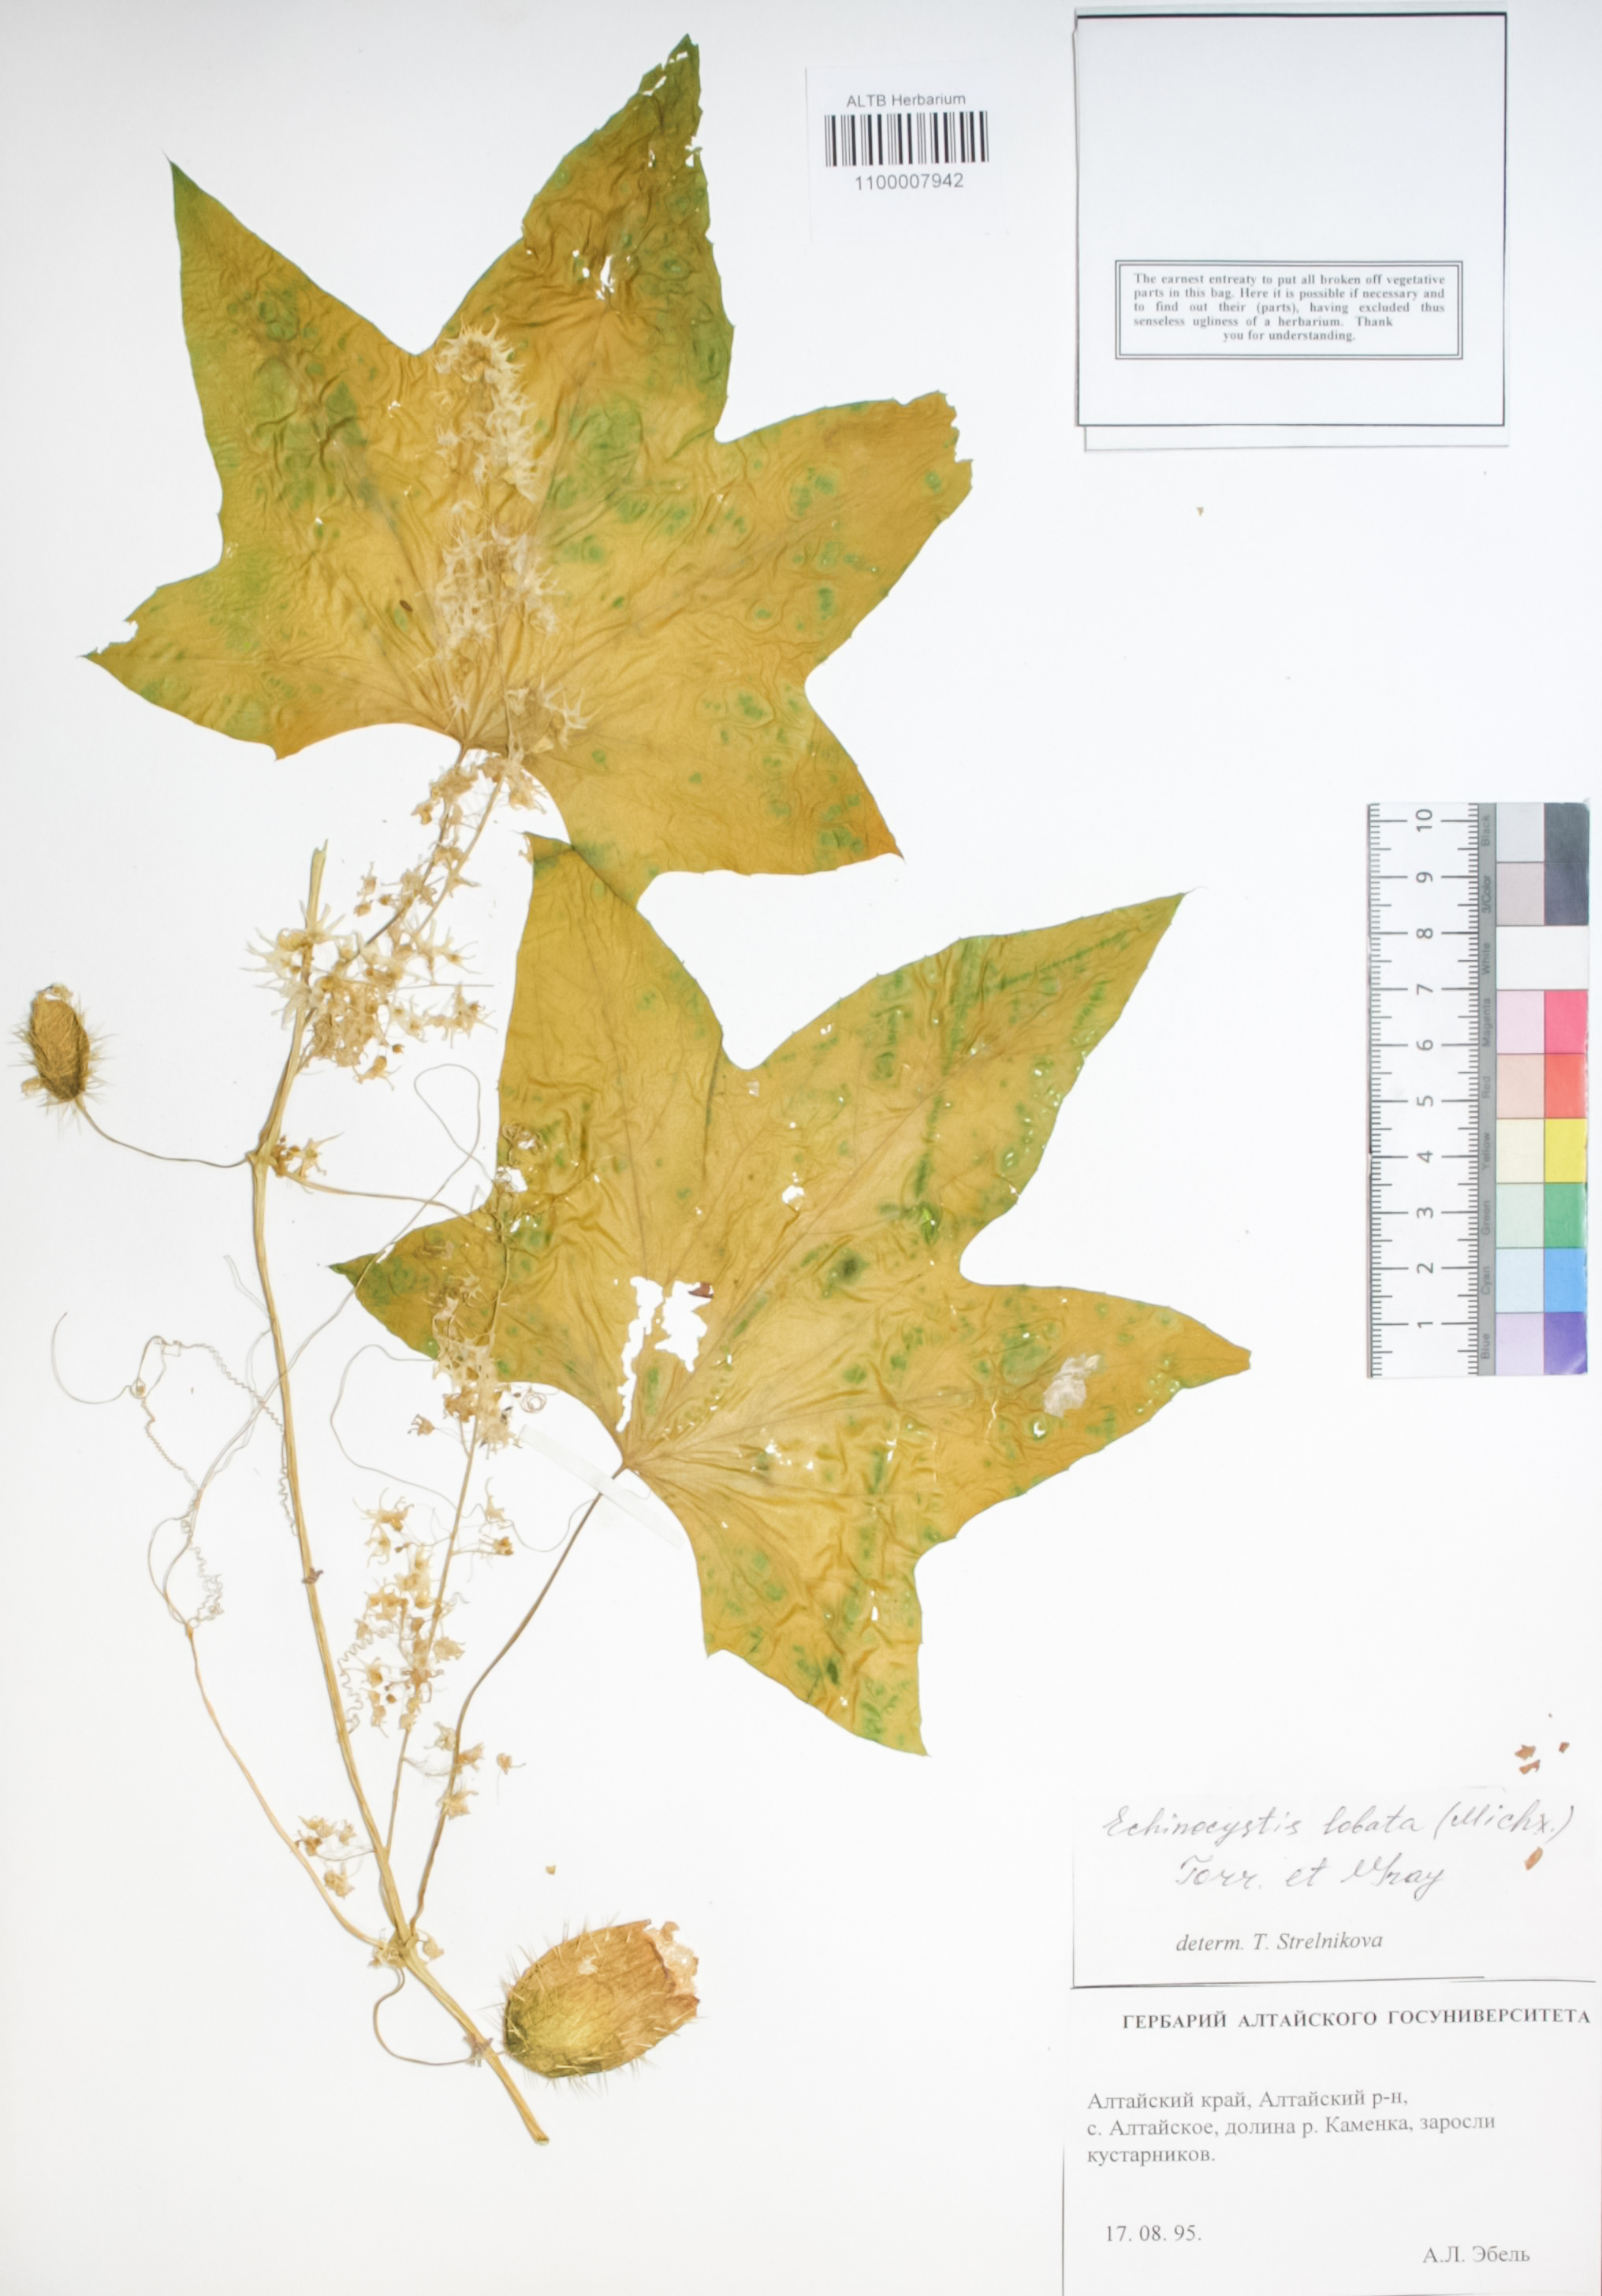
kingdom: Plantae
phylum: Tracheophyta
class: Magnoliopsida
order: Cucurbitales
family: Cucurbitaceae
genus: Echinocystis
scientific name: Echinocystis lobata
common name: Wild cucumber
